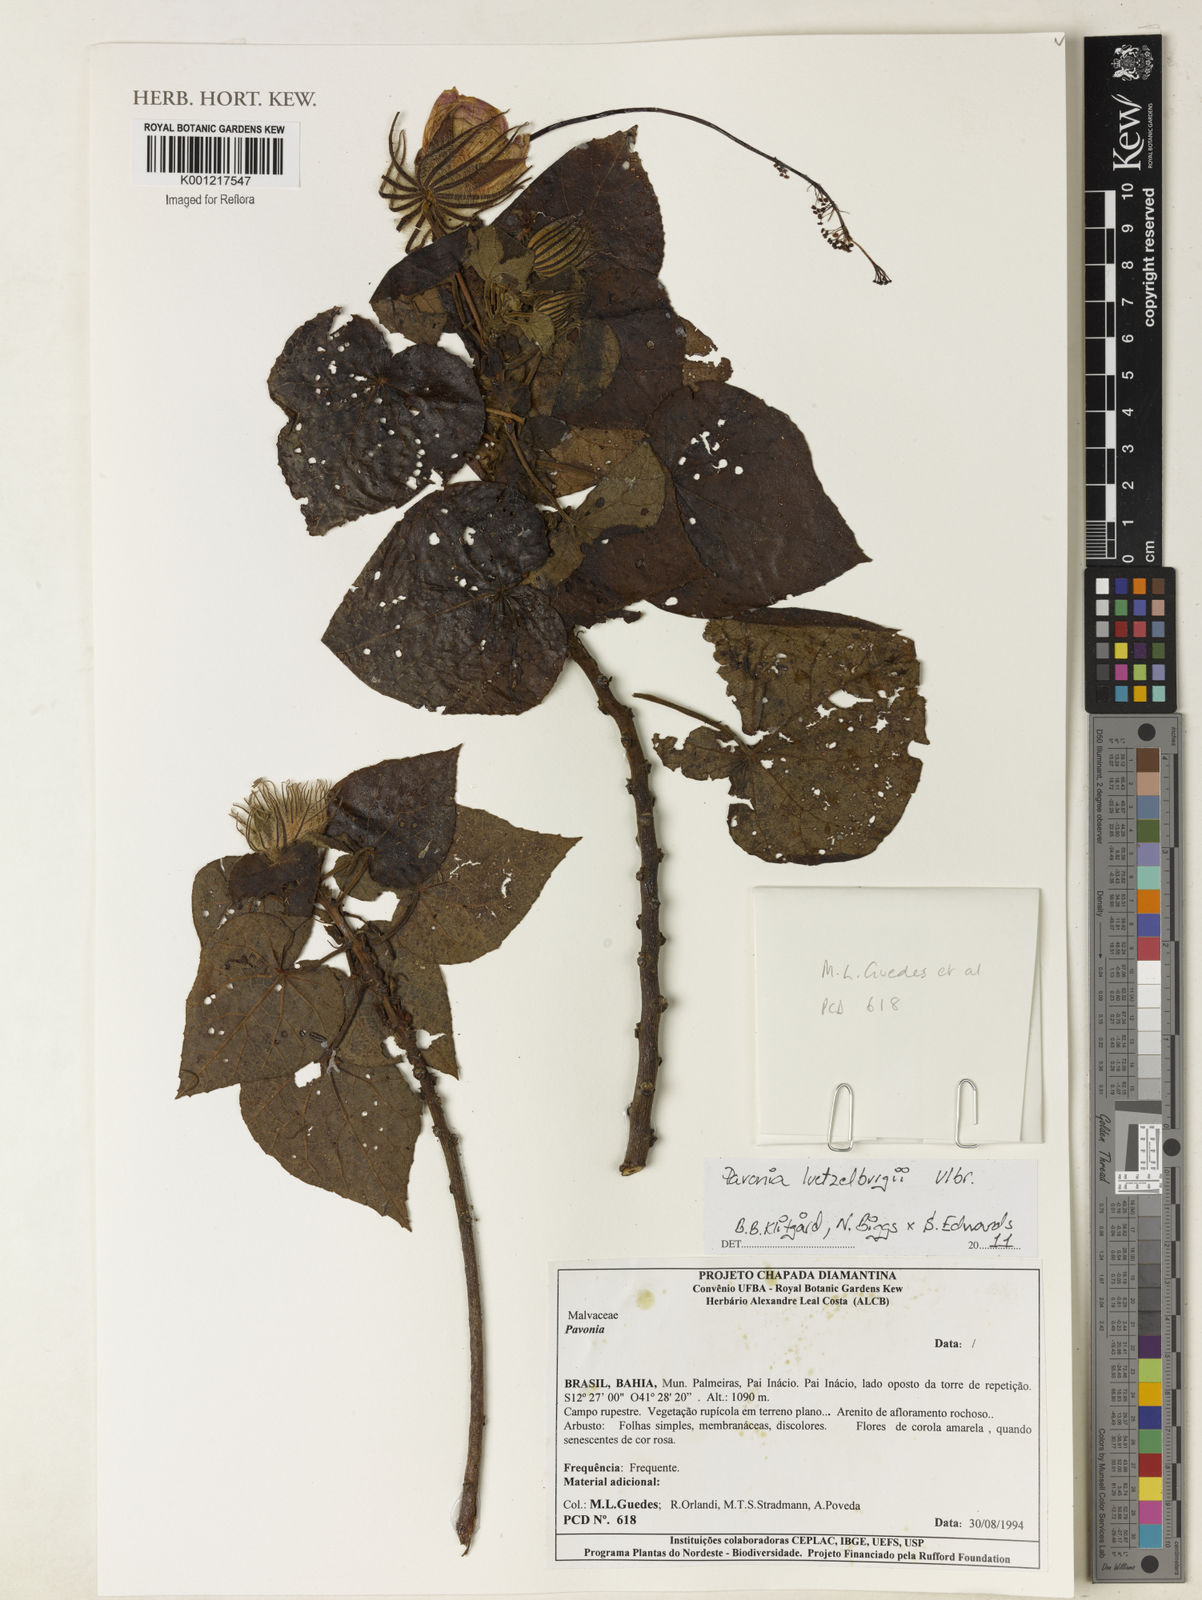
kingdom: Plantae
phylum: Tracheophyta
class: Magnoliopsida
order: Malvales
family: Malvaceae
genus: Pavonia
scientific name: Pavonia luetzelburgii
